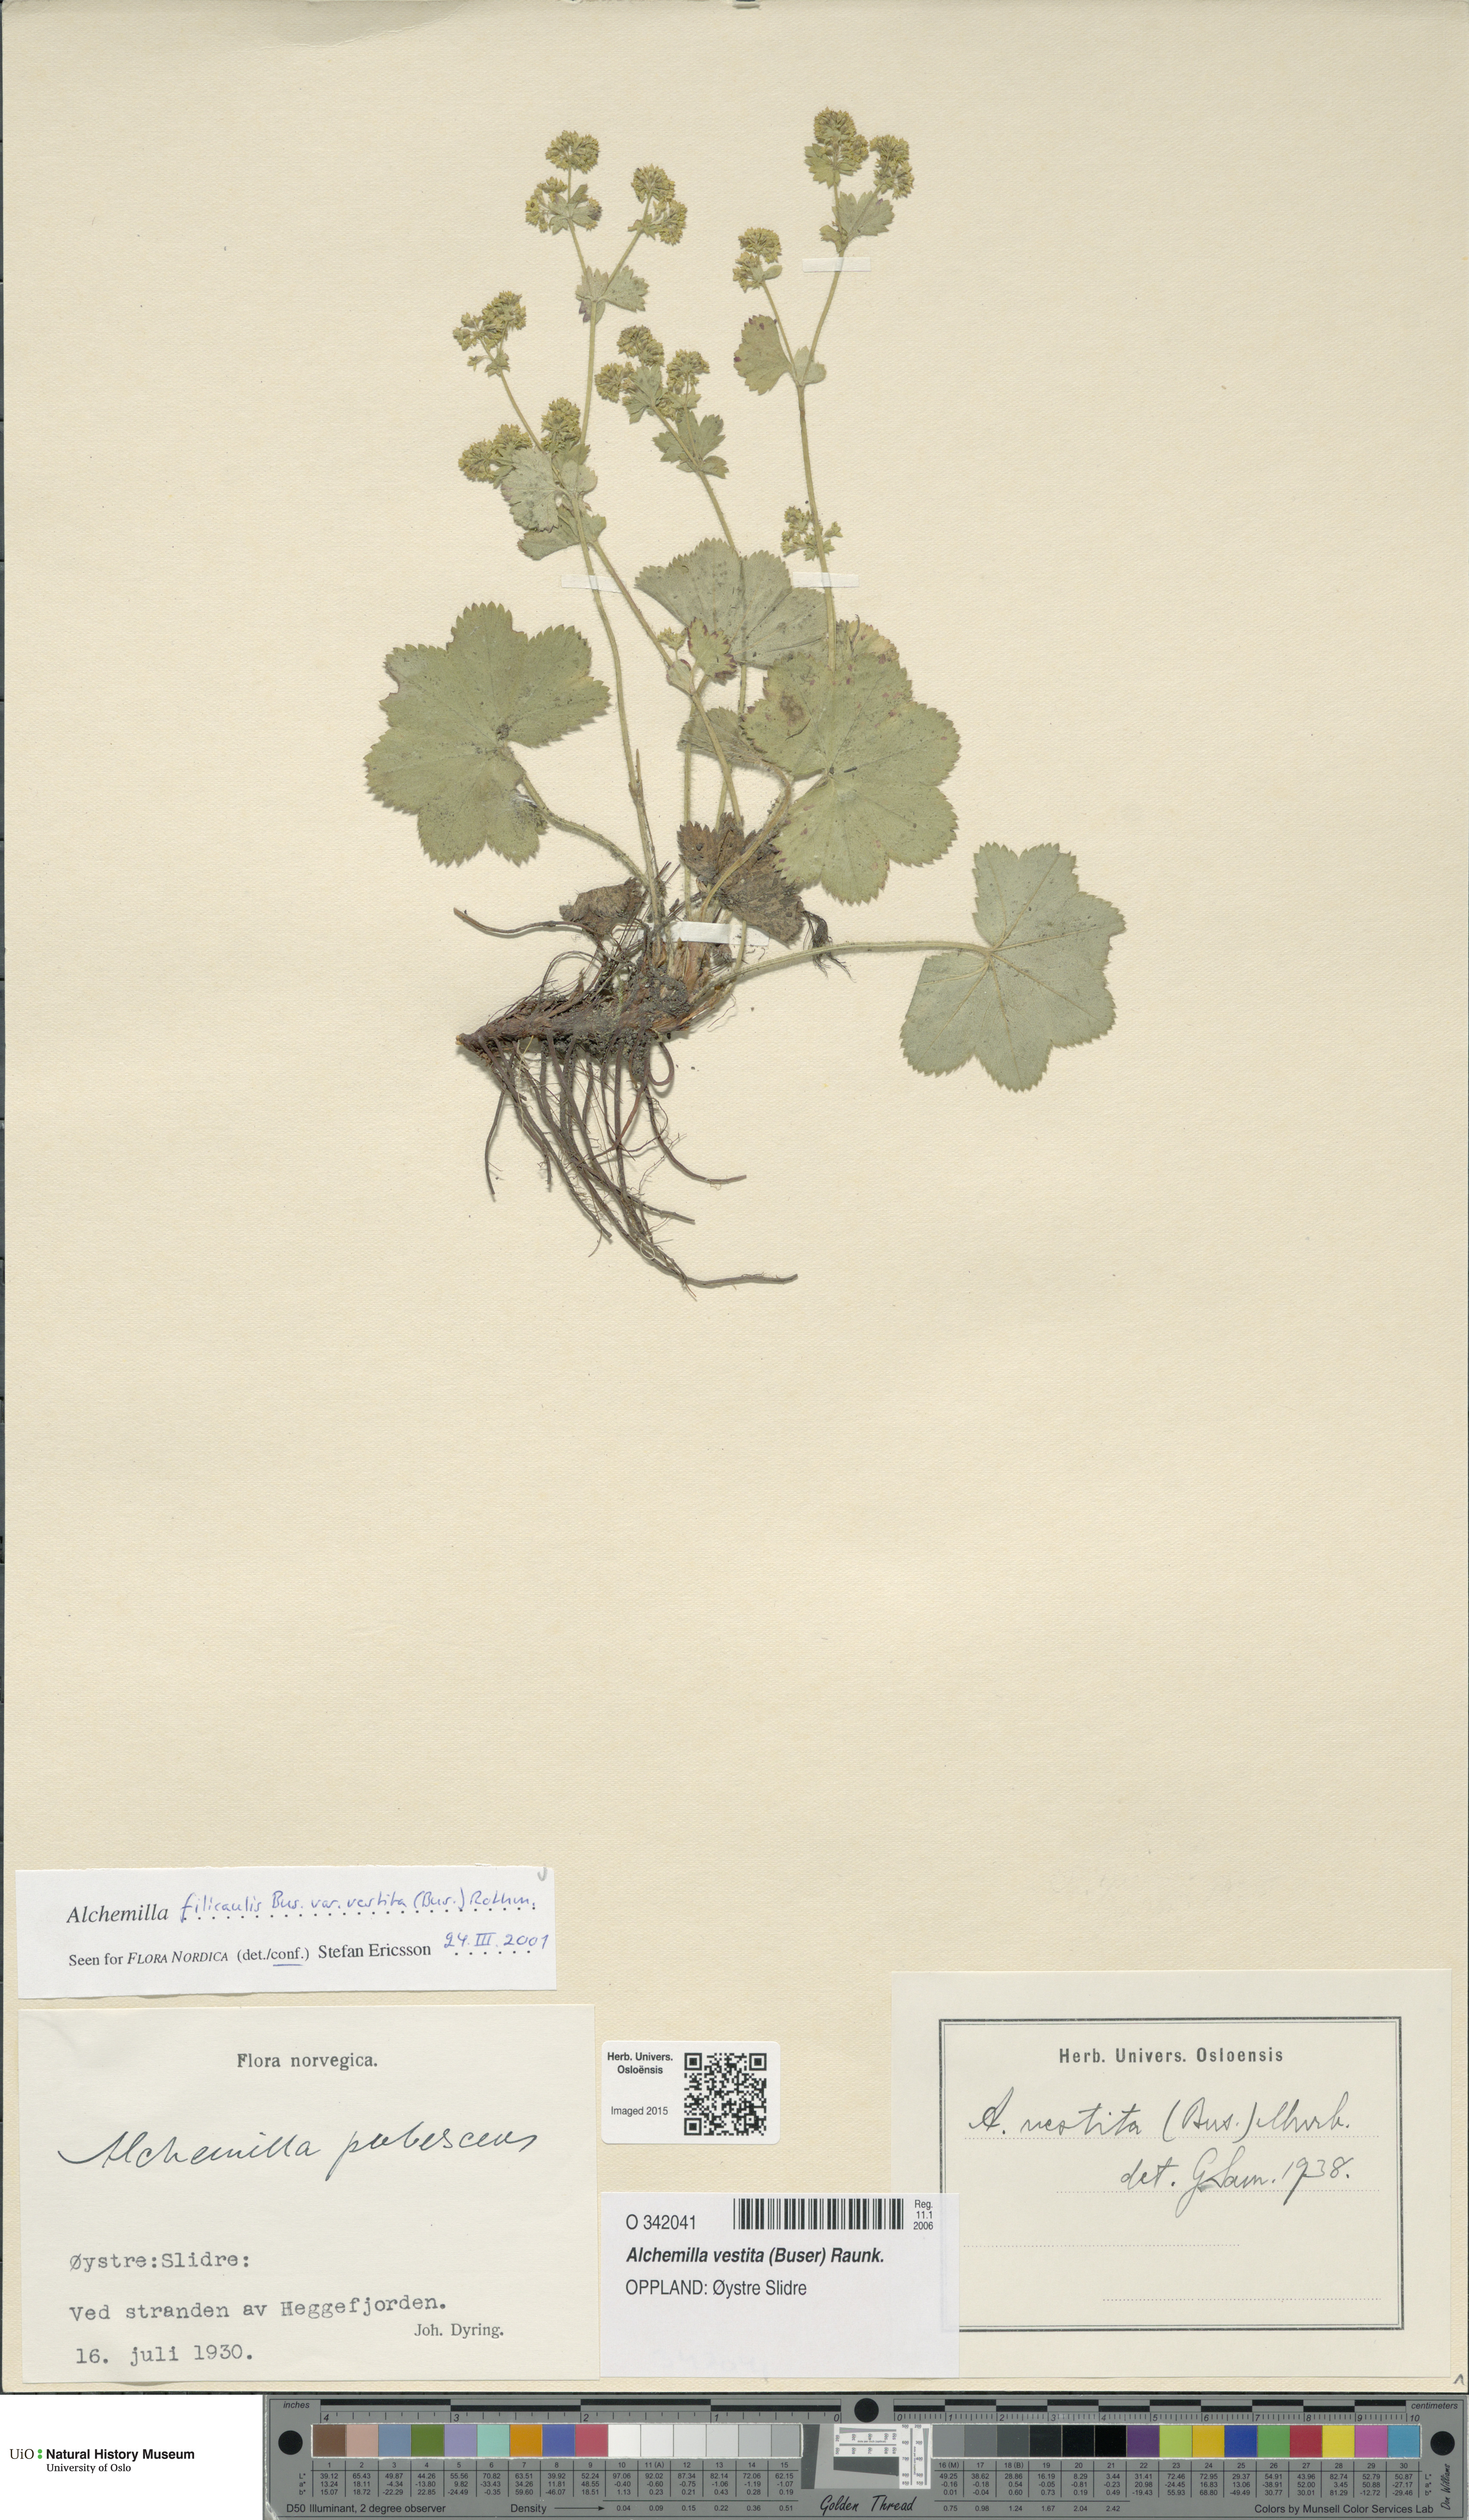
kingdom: Plantae
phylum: Tracheophyta
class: Magnoliopsida
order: Rosales
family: Rosaceae
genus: Alchemilla
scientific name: Alchemilla filicaulis
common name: Hairy lady's-mantle
